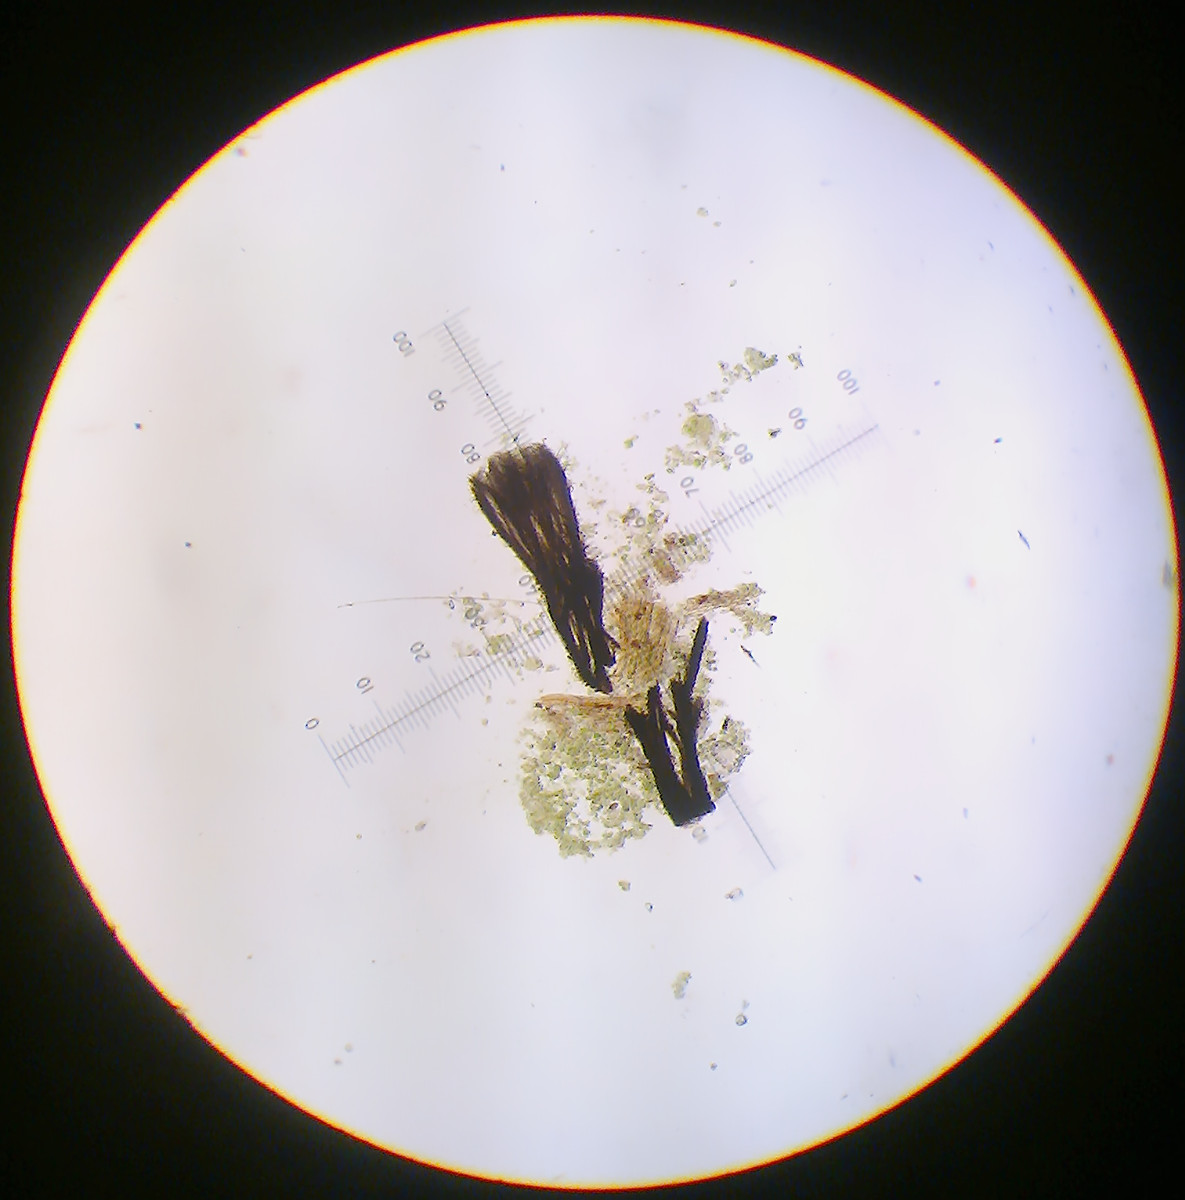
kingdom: Fungi
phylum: Ascomycota
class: Lecanoromycetes
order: Lecanorales
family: Byssolomataceae
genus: Szczawinskia
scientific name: Szczawinskia tsugae
